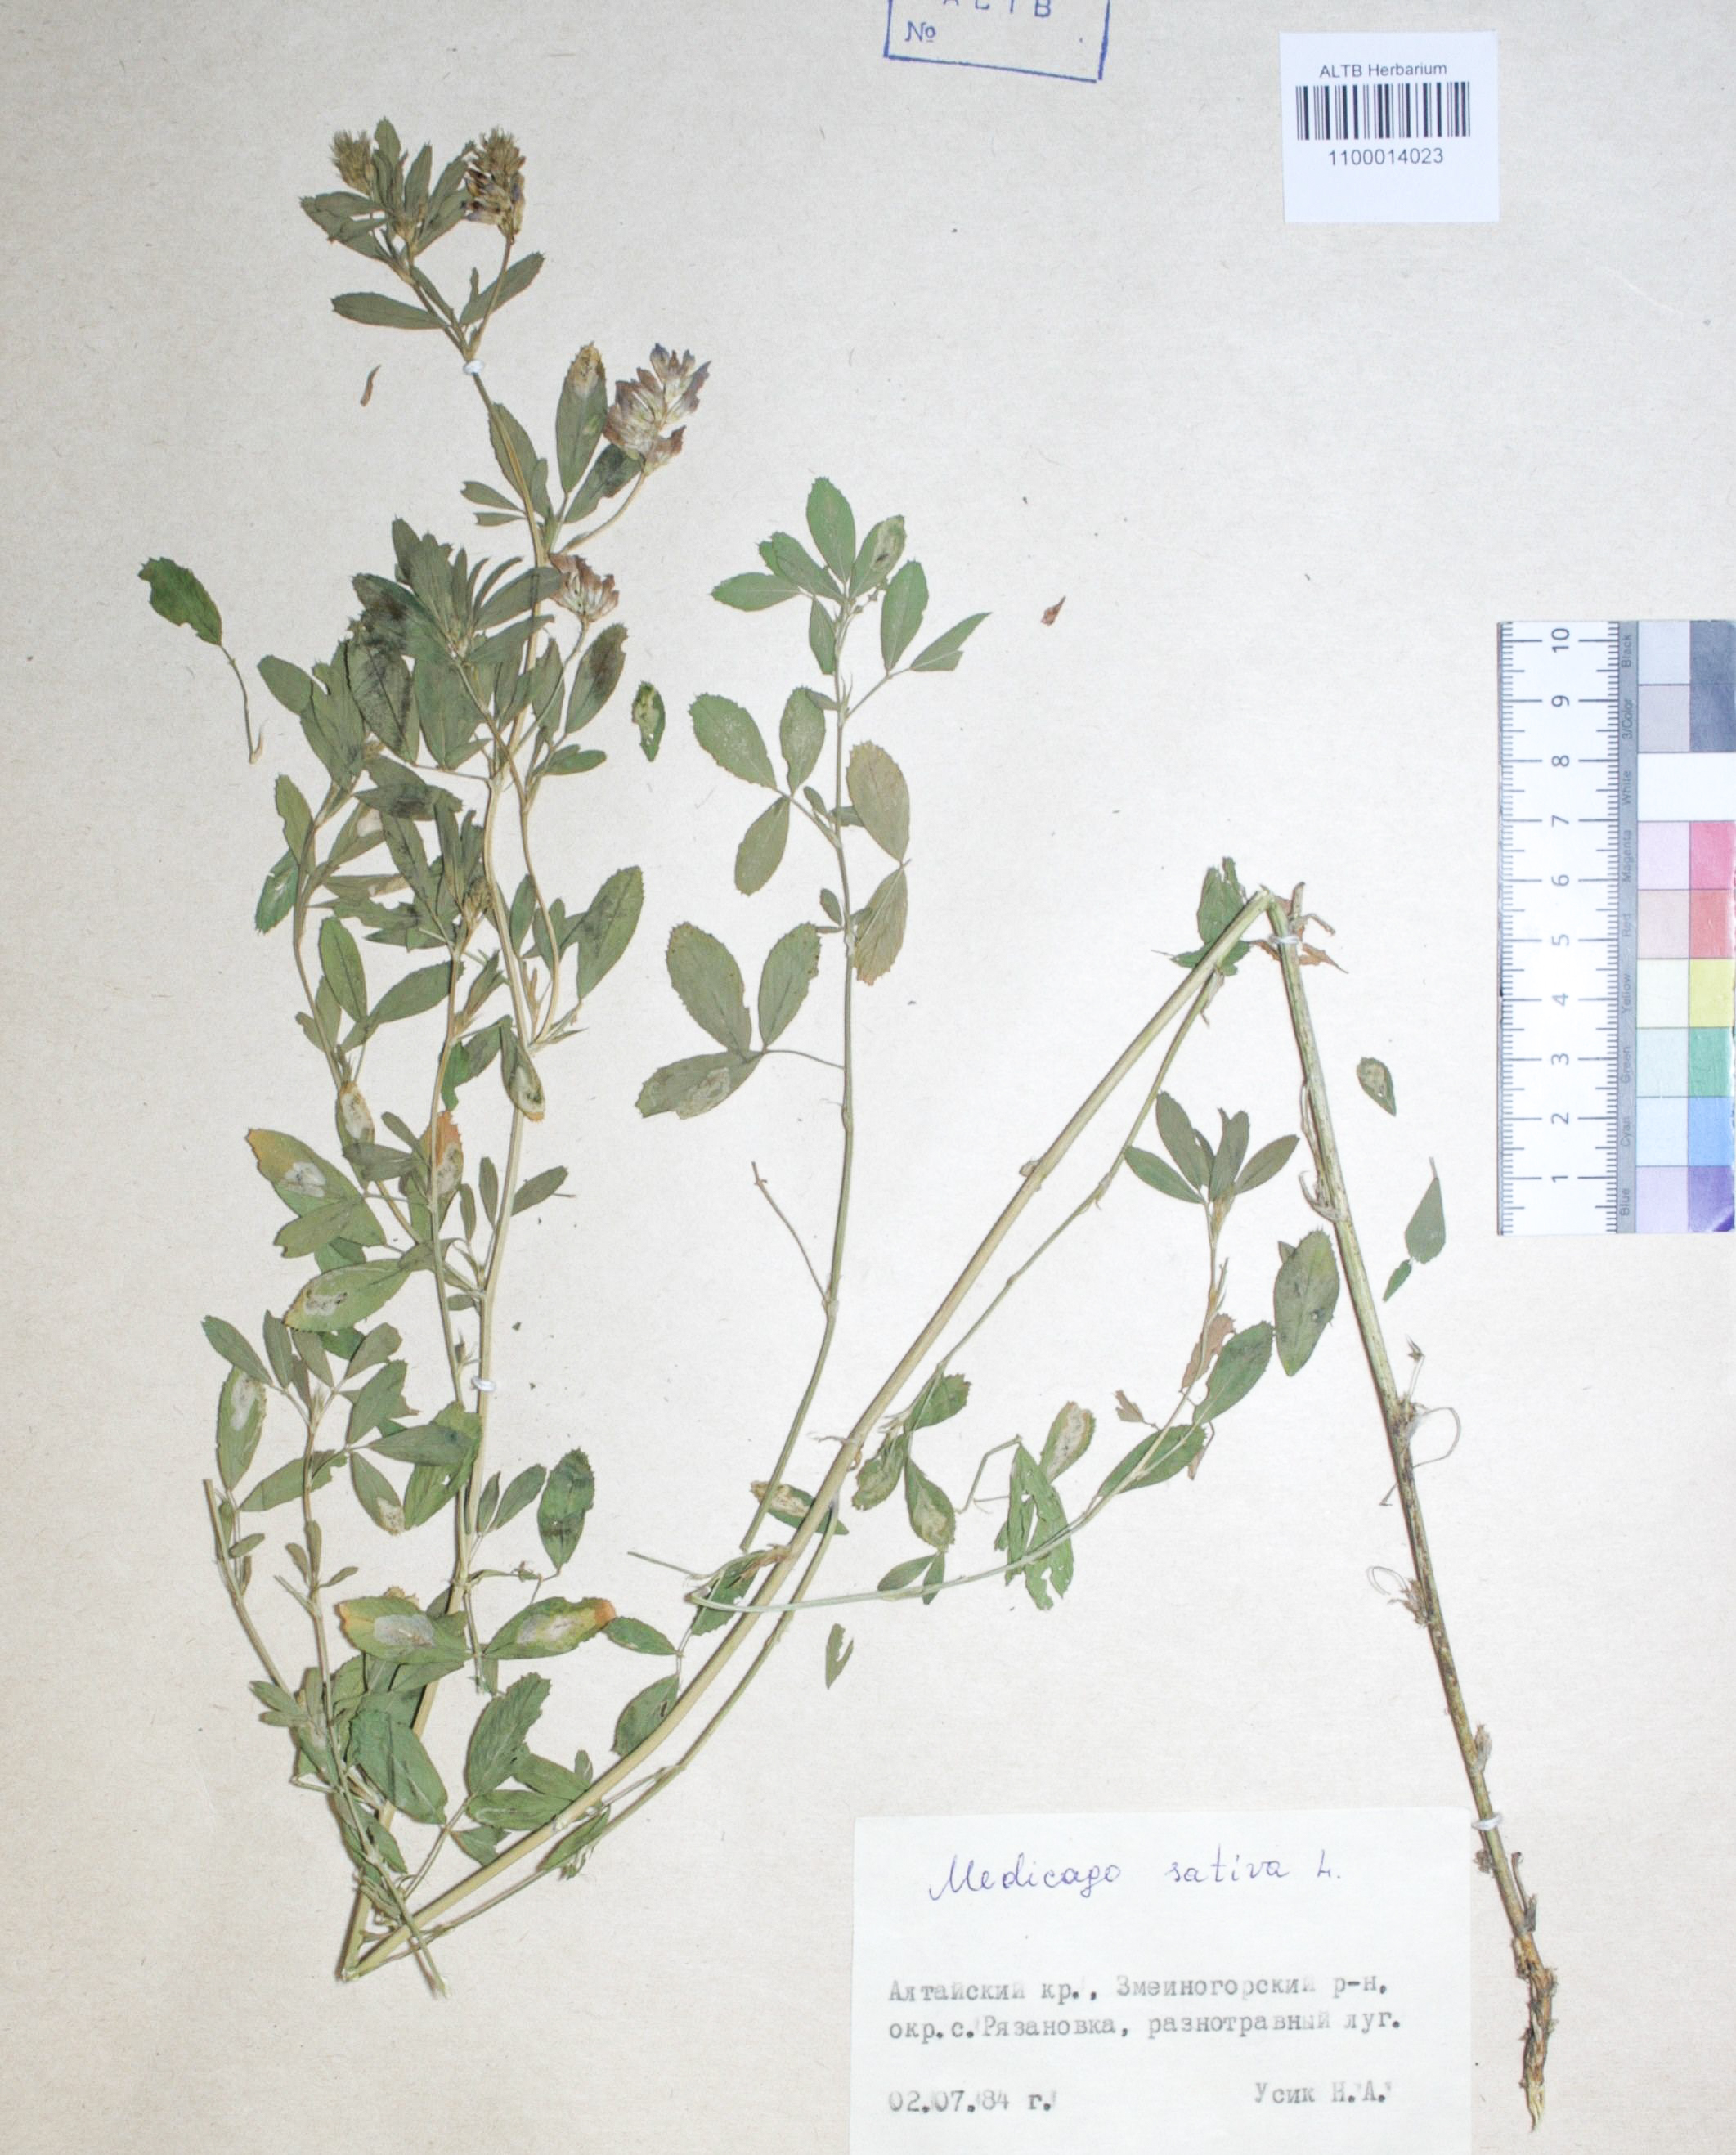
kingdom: Plantae
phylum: Tracheophyta
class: Magnoliopsida
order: Fabales
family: Fabaceae
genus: Medicago
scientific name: Medicago sativa
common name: Alfalfa
